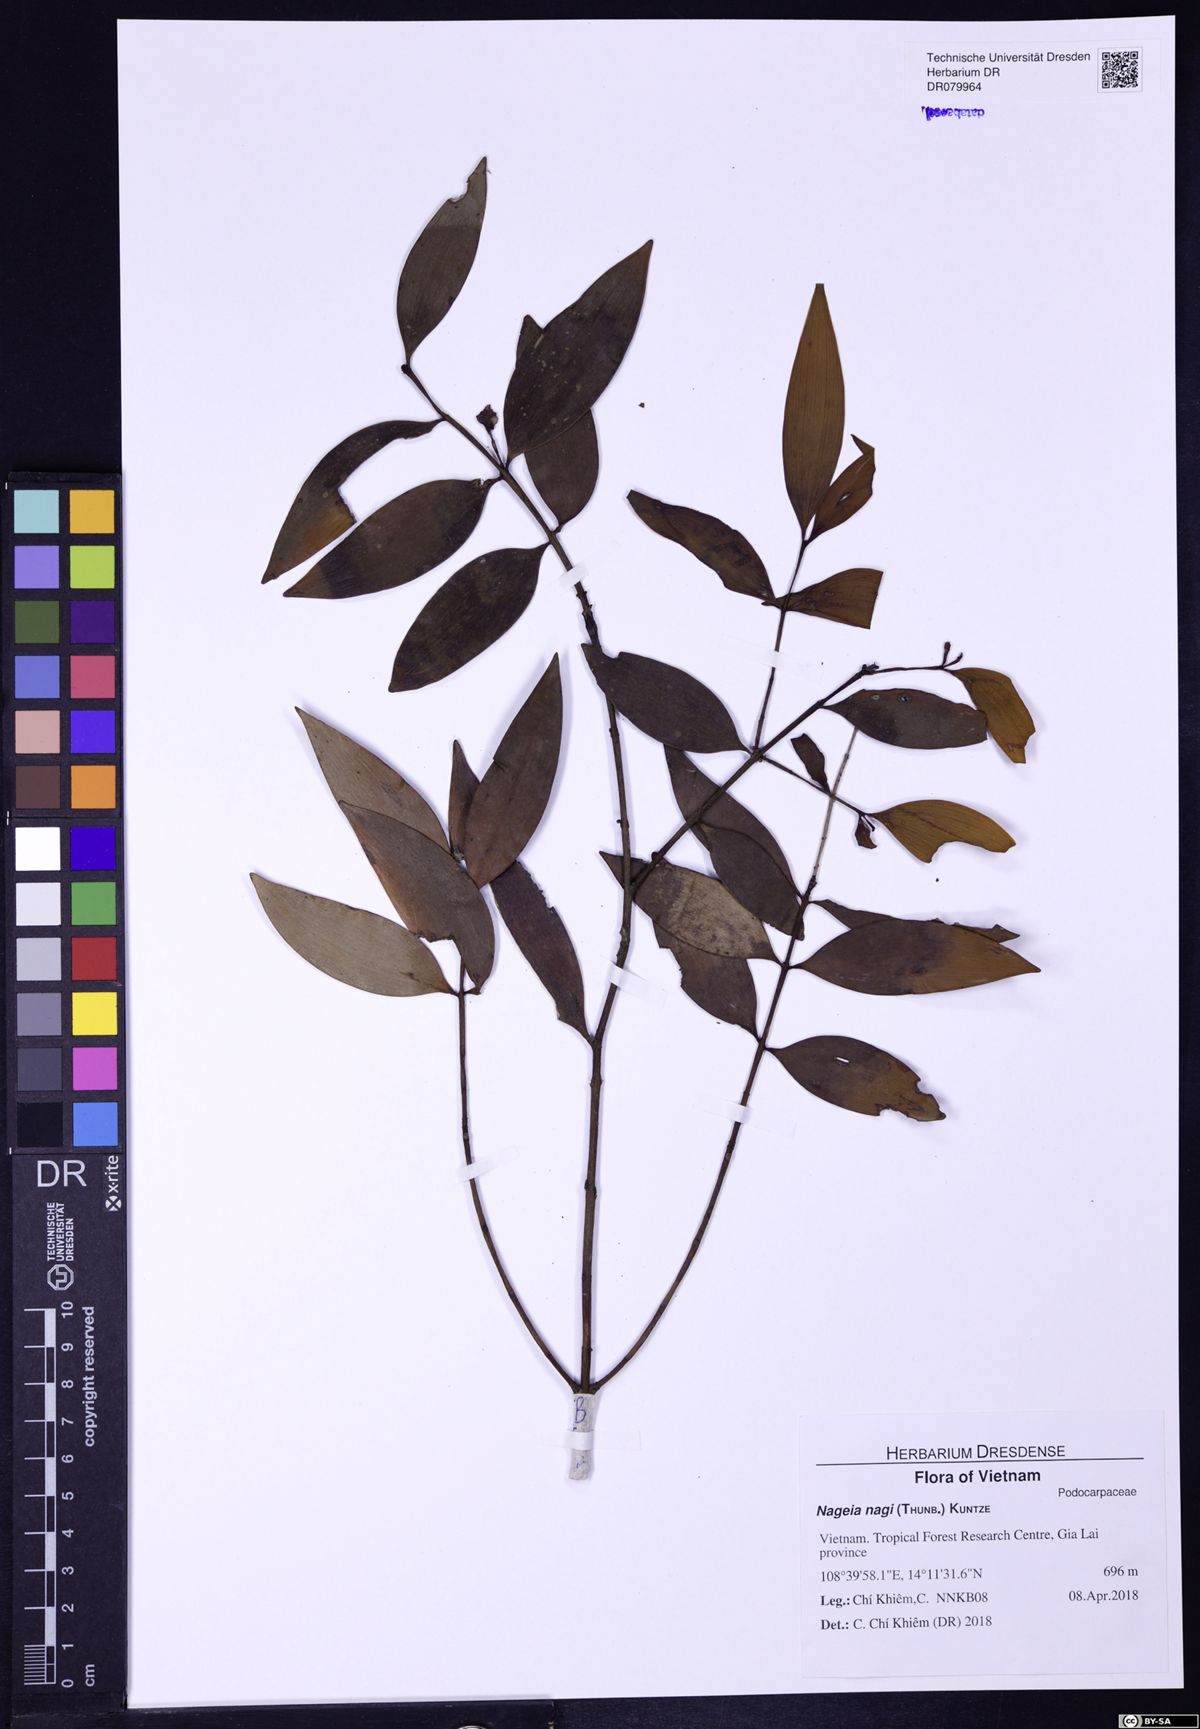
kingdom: Plantae
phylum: Tracheophyta
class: Pinopsida
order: Pinales
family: Podocarpaceae
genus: Nageia
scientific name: Nageia nagi
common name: Kaphal
